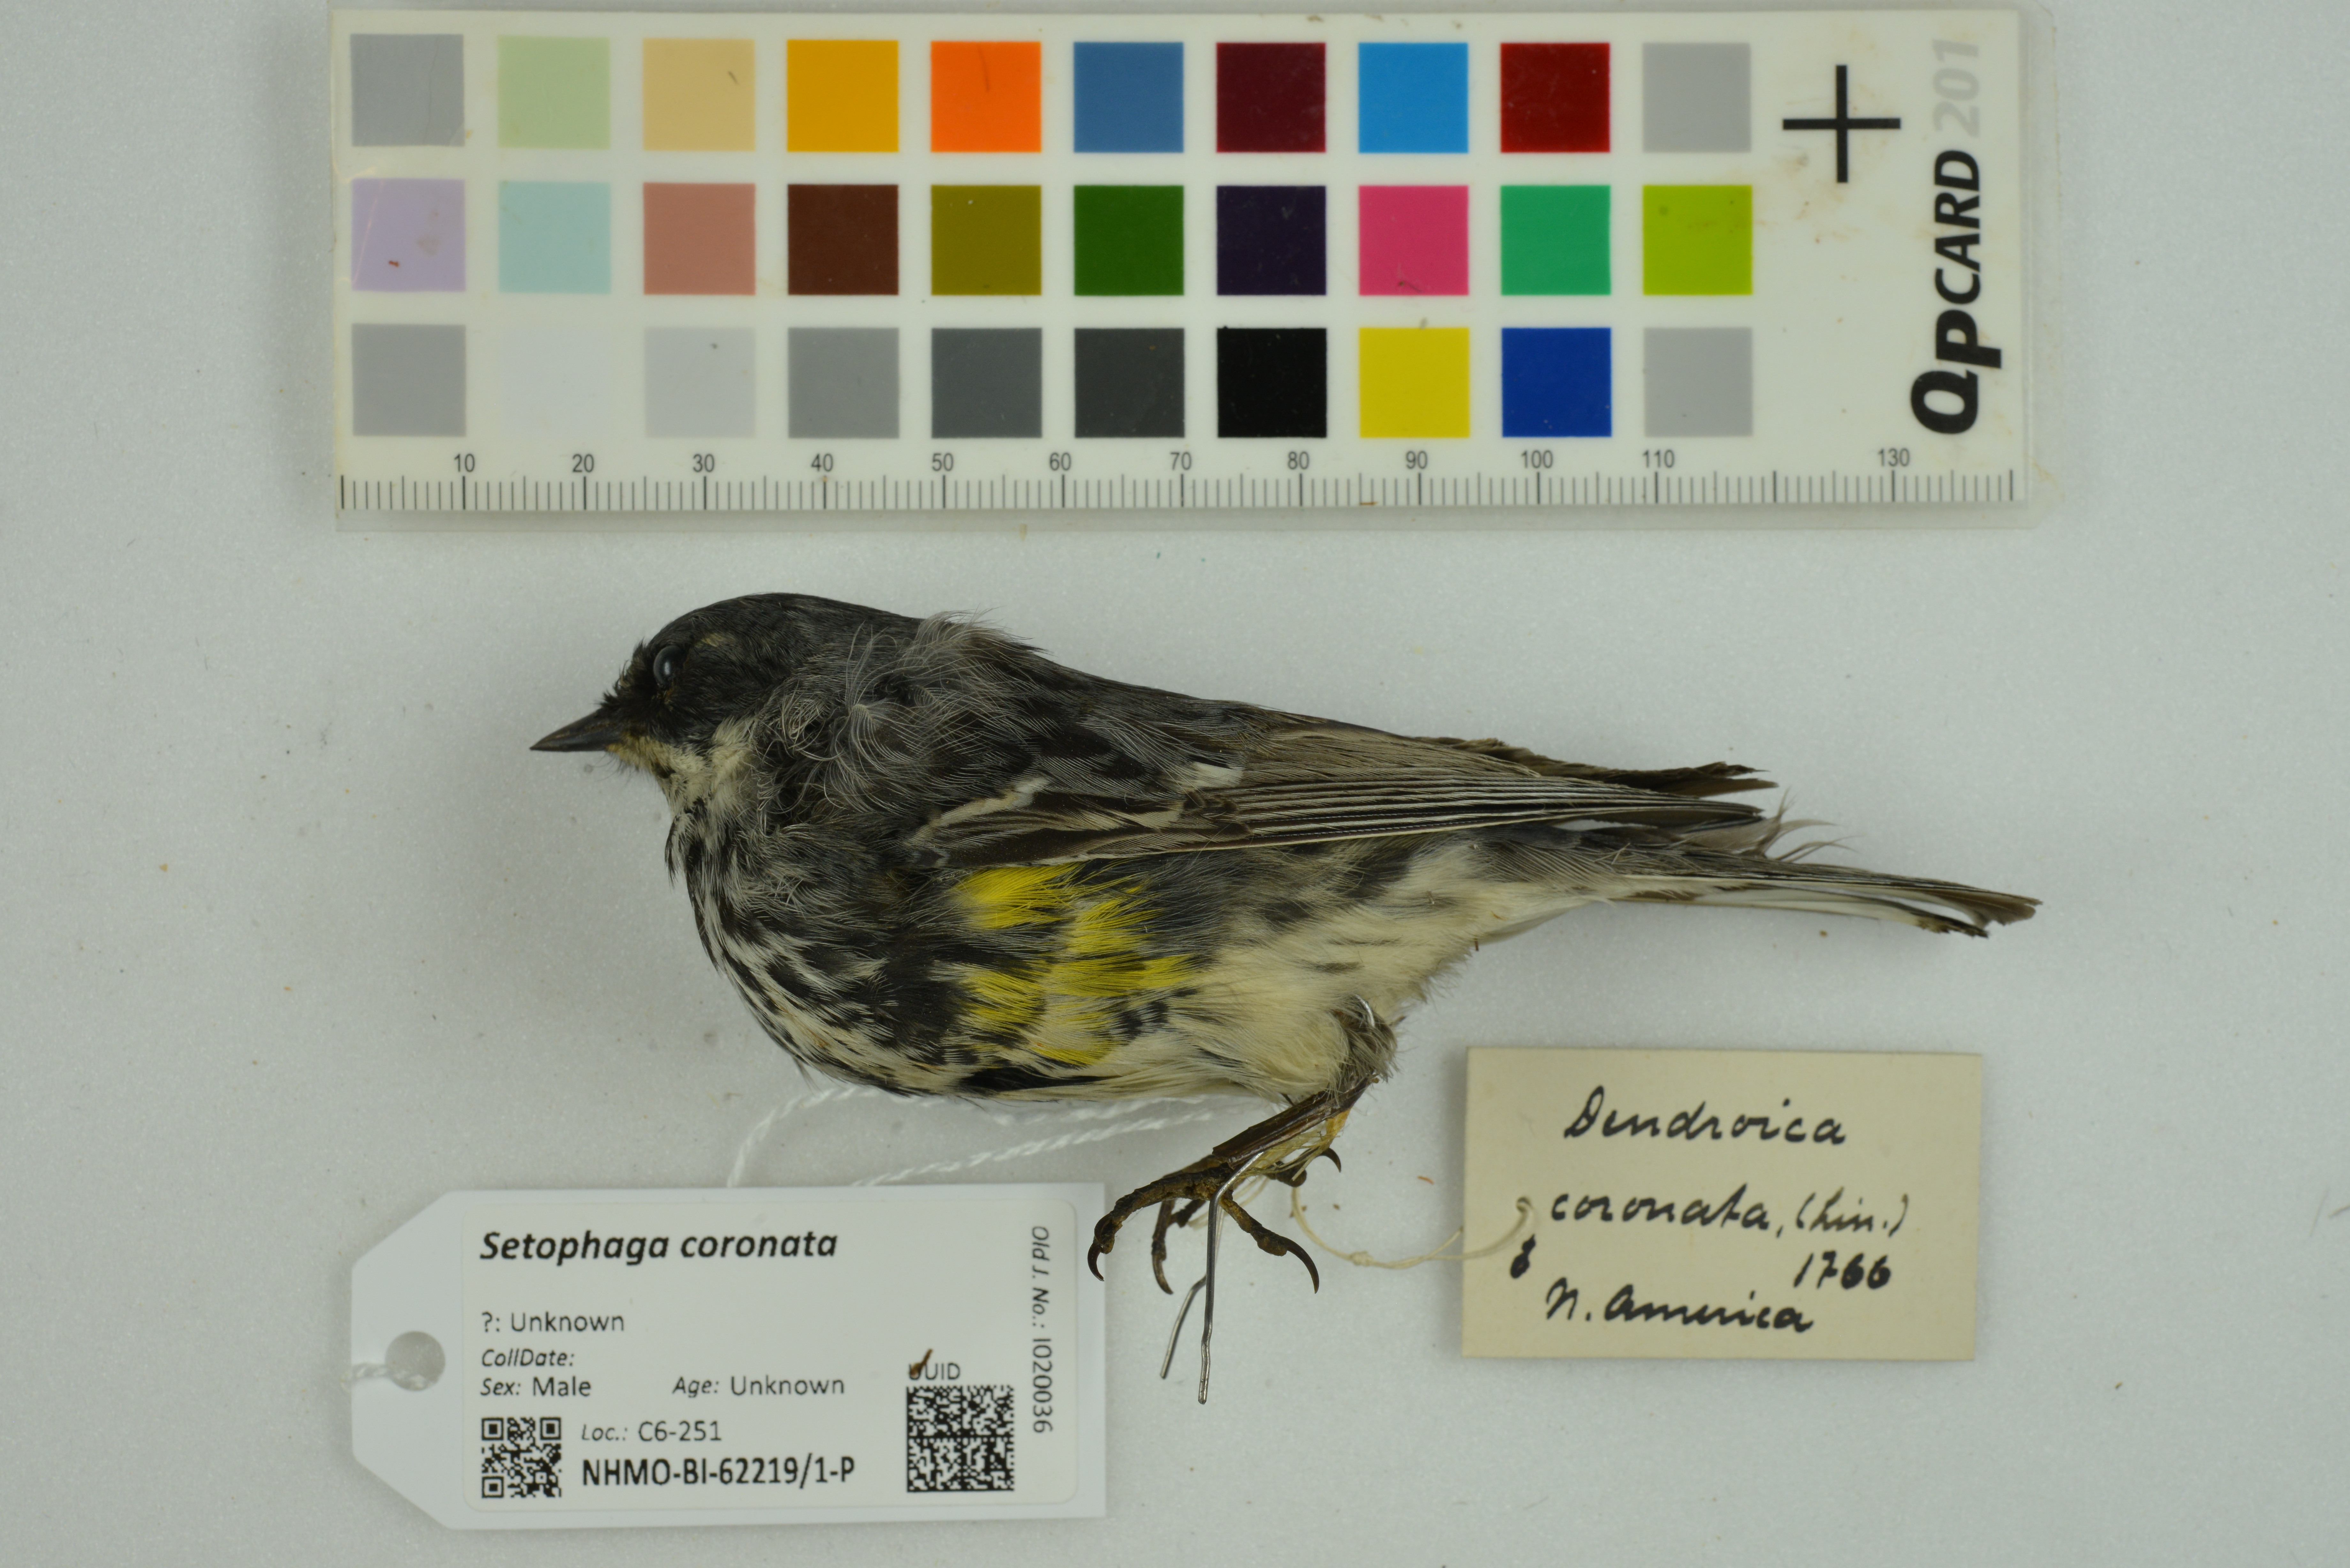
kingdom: Animalia
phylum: Chordata
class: Aves
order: Passeriformes
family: Parulidae
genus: Setophaga
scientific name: Setophaga coronata
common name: Myrtle warbler
